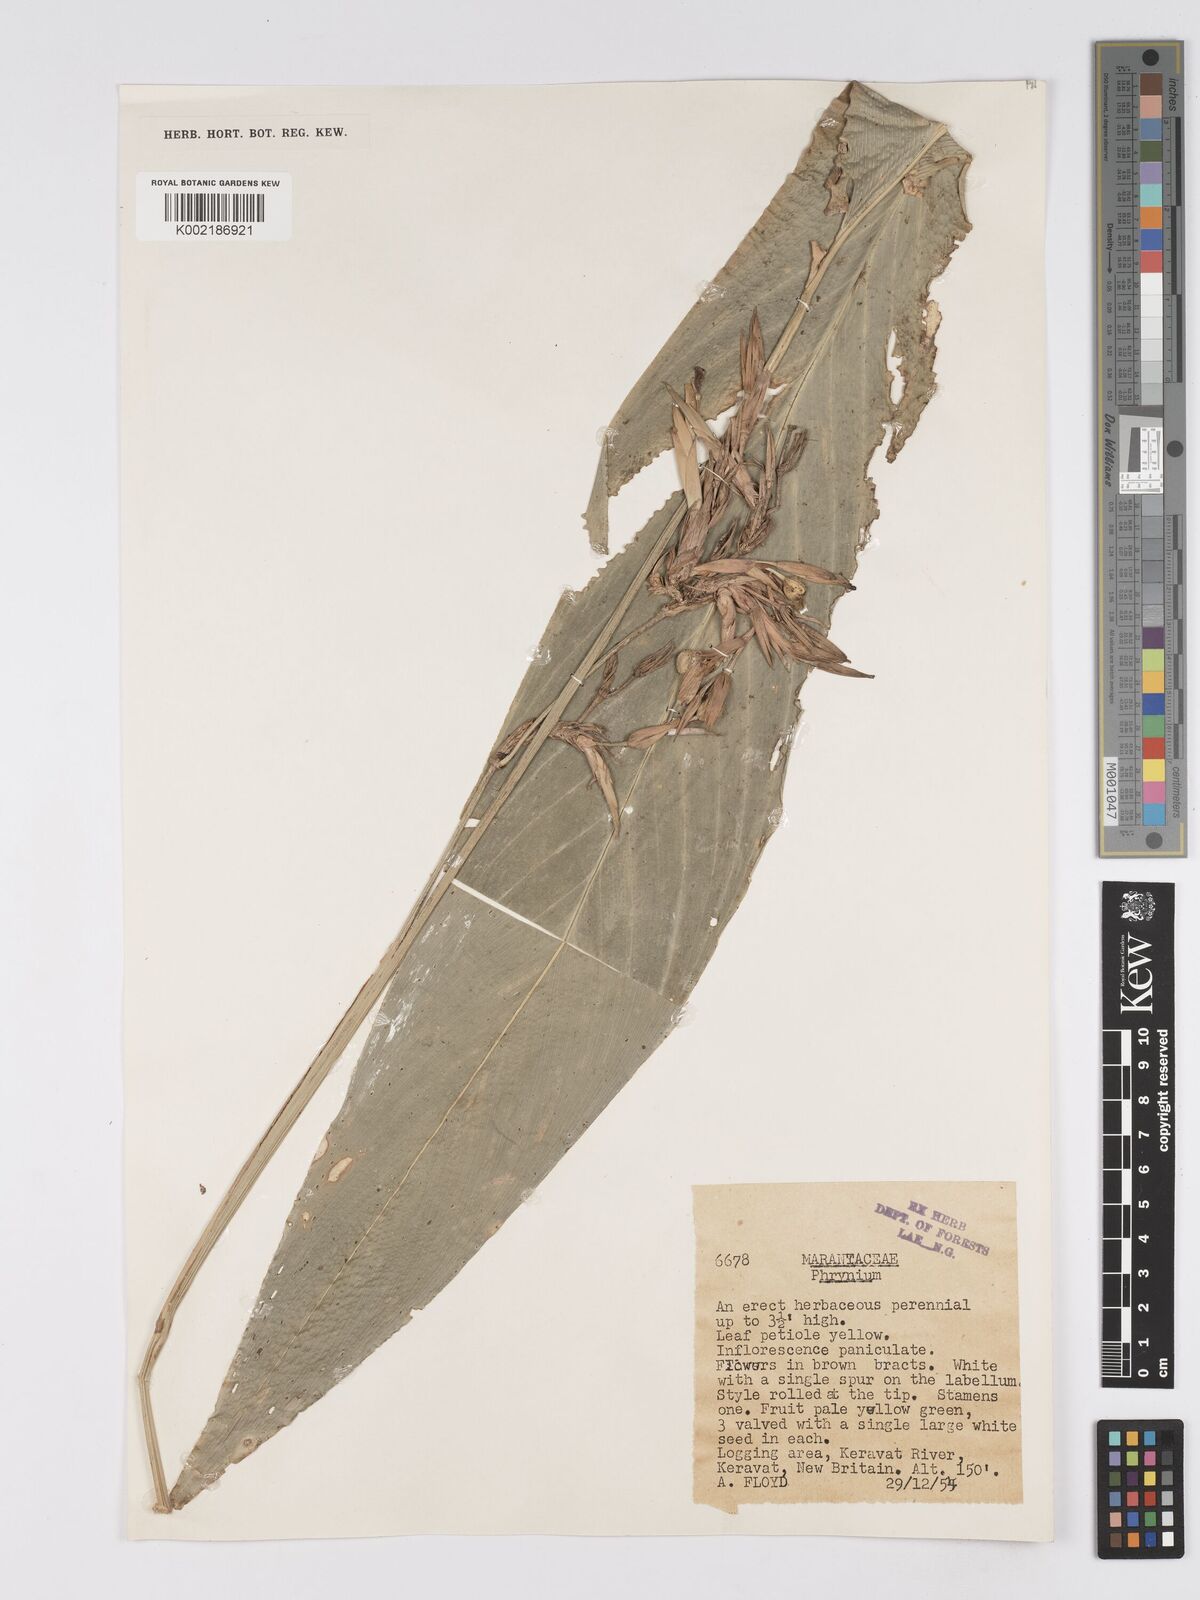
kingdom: Plantae
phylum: Tracheophyta
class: Liliopsida
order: Zingiberales
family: Marantaceae
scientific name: Marantaceae
